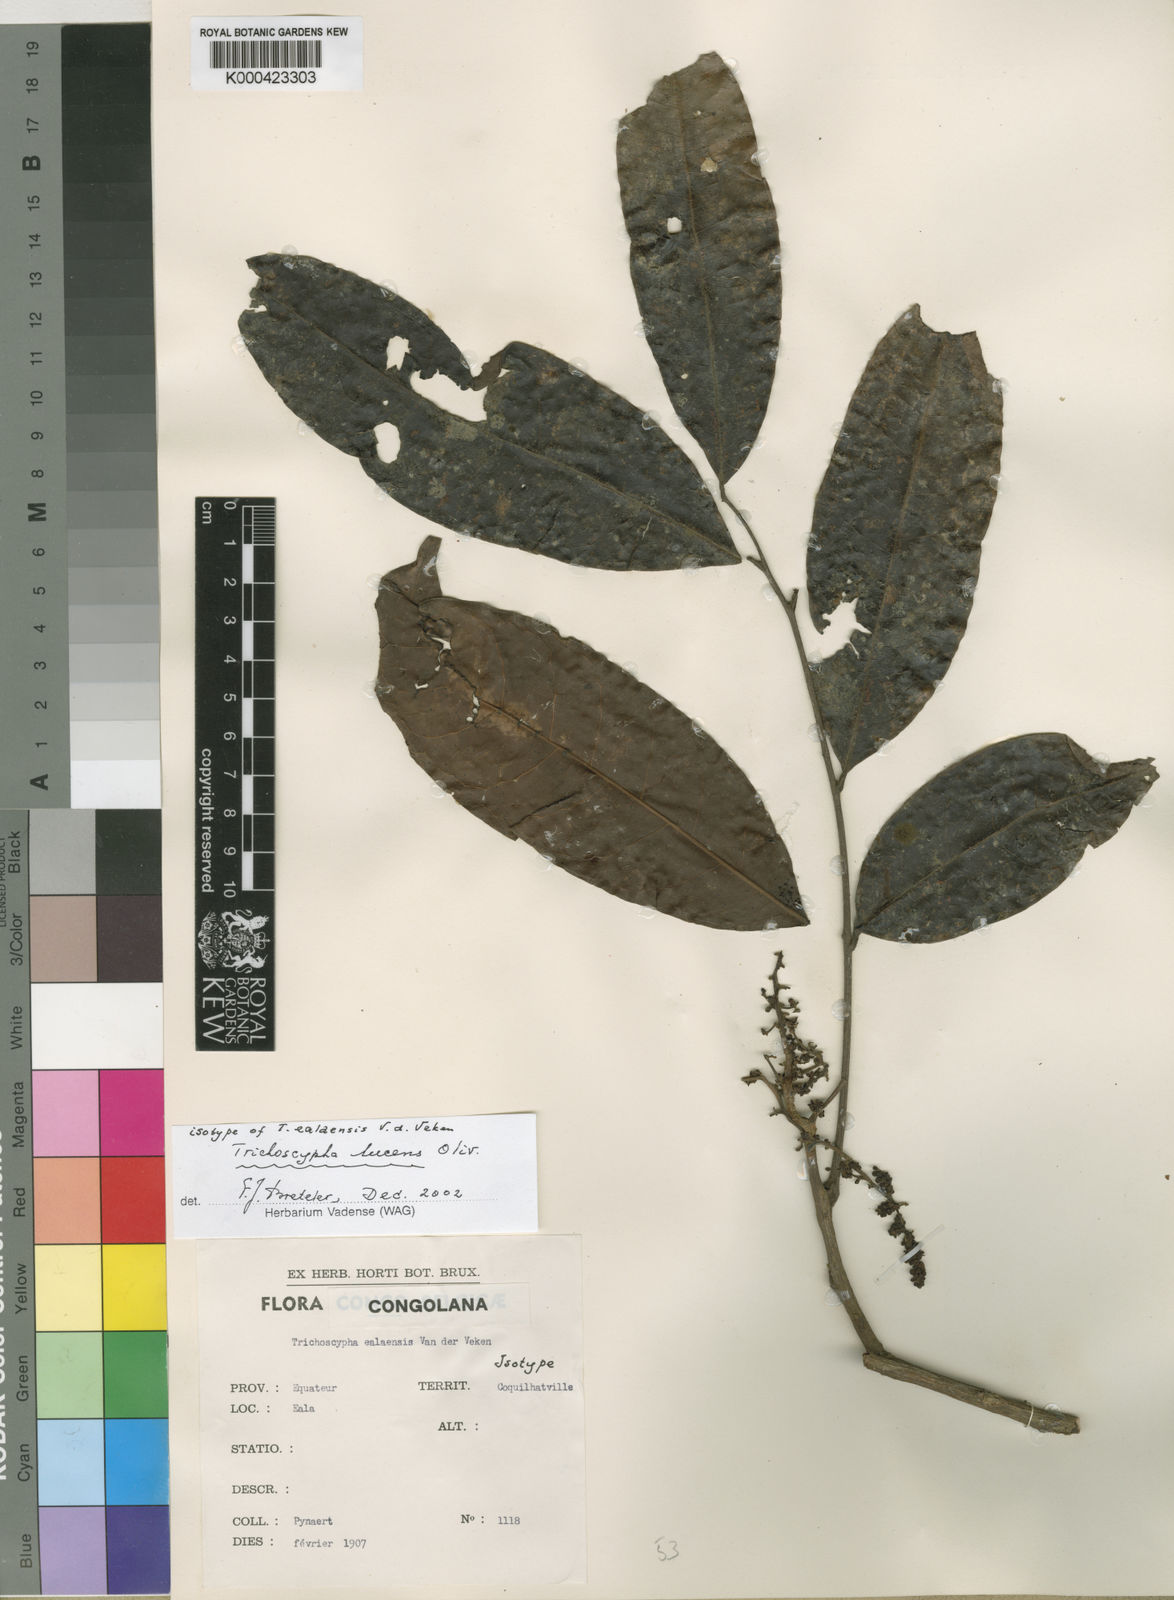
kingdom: Plantae
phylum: Tracheophyta
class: Magnoliopsida
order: Sapindales
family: Anacardiaceae
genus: Trichoscypha
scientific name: Trichoscypha lucens
